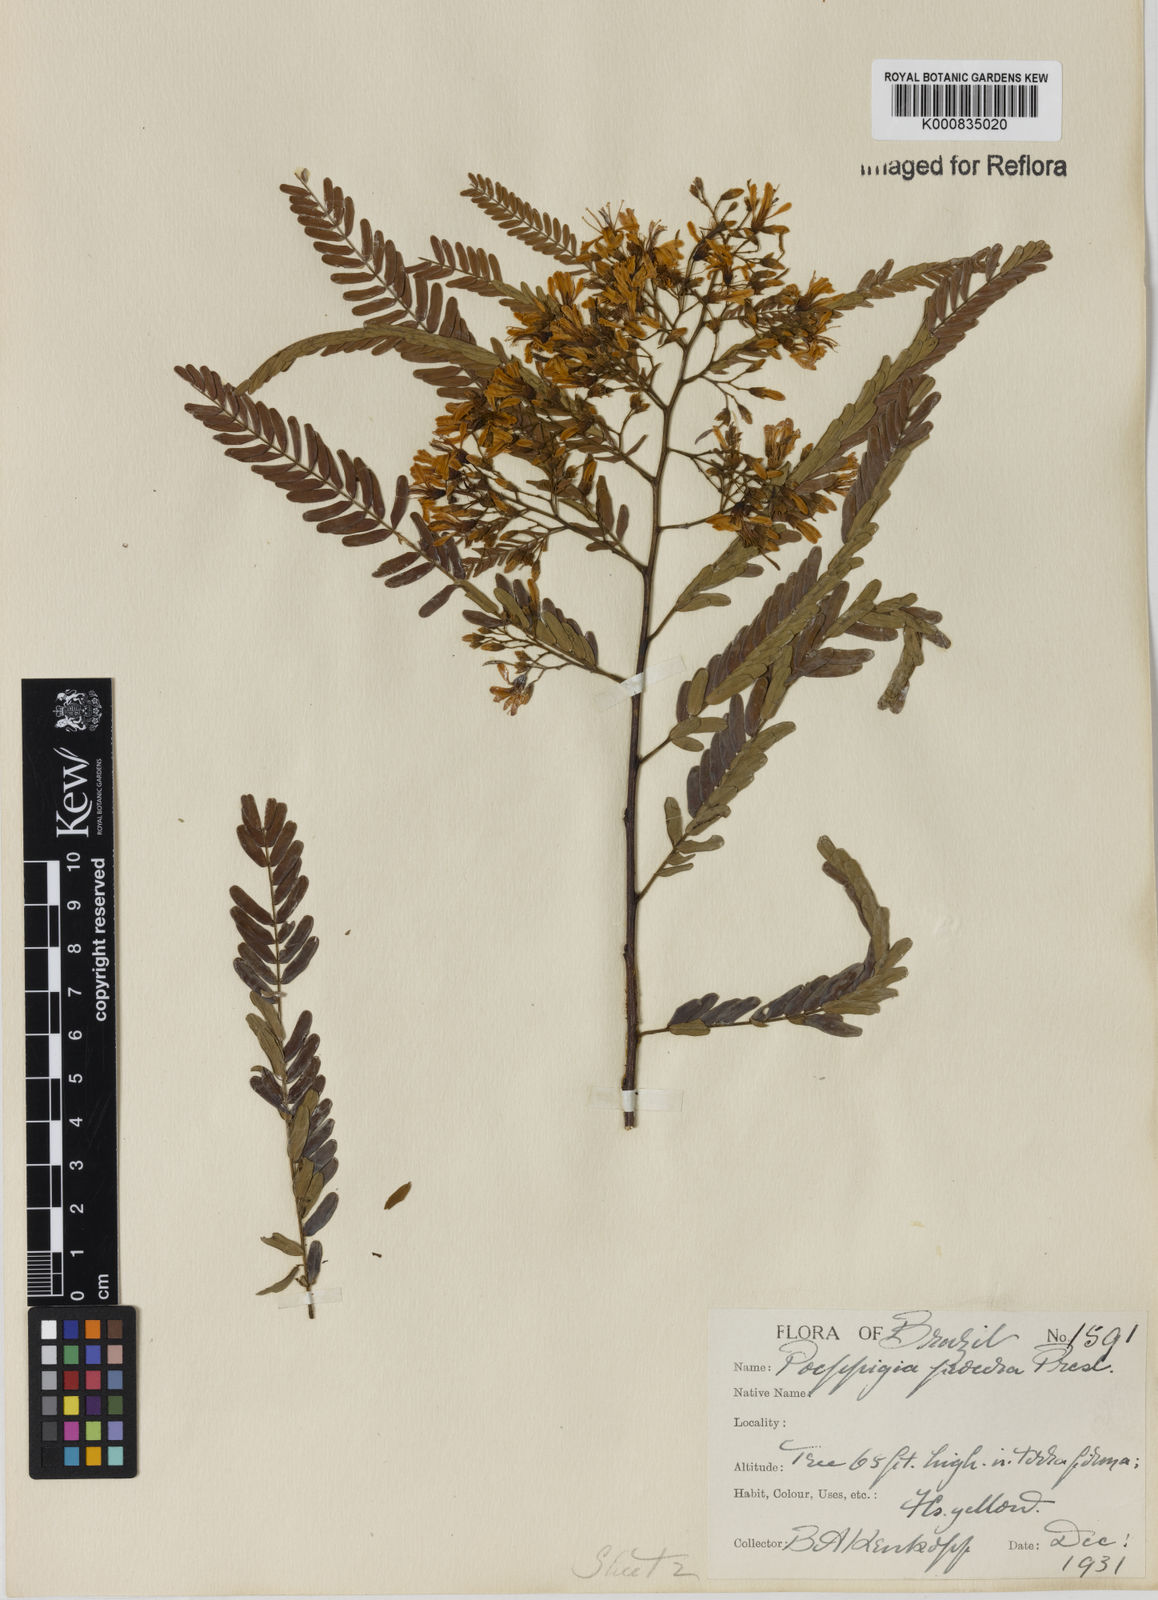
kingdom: Plantae
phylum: Tracheophyta
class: Magnoliopsida
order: Fabales
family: Fabaceae
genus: Poeppigia
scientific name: Poeppigia procera
